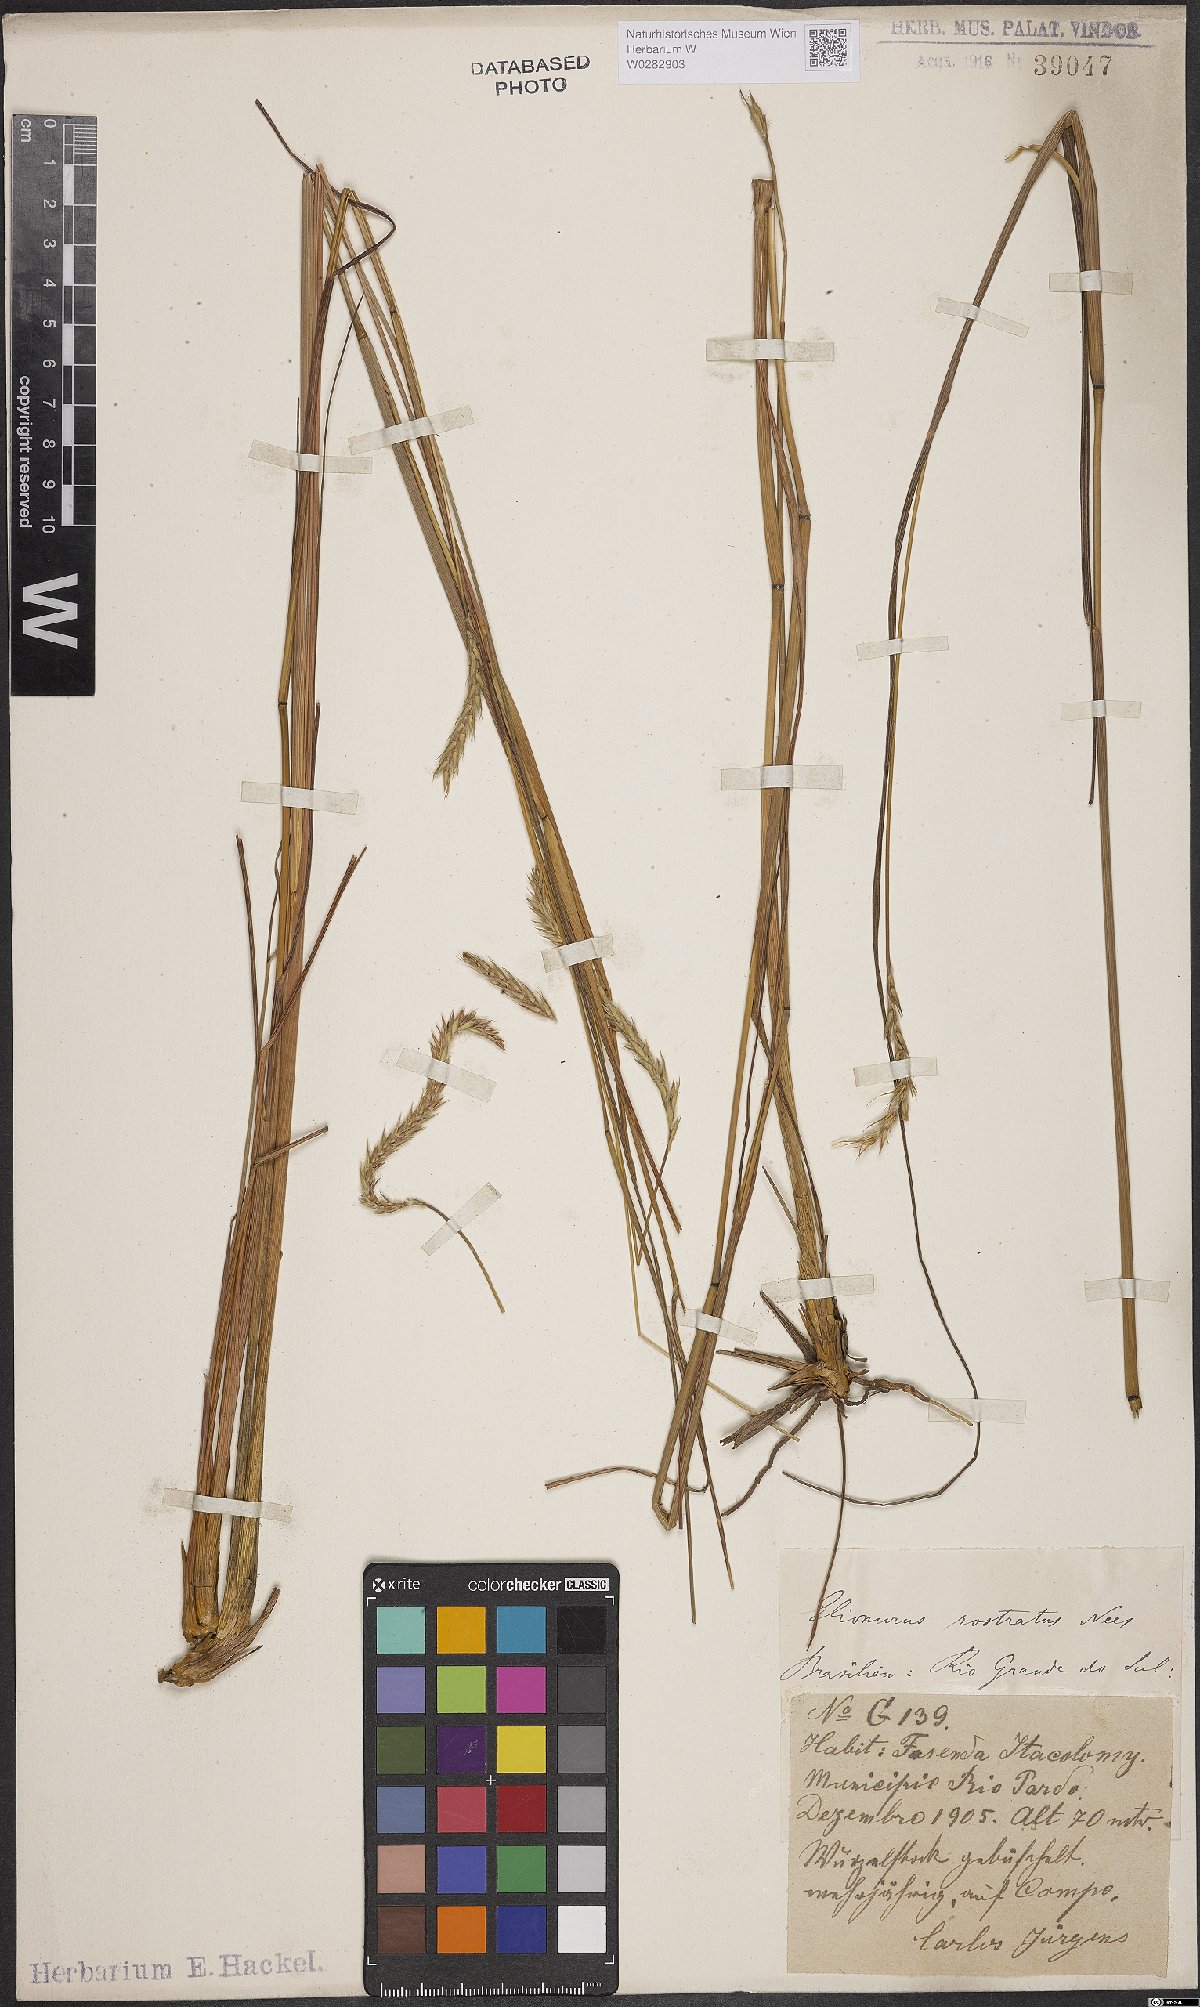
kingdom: Plantae
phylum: Tracheophyta
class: Liliopsida
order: Poales
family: Poaceae
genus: Elionurus
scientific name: Elionurus muticus
